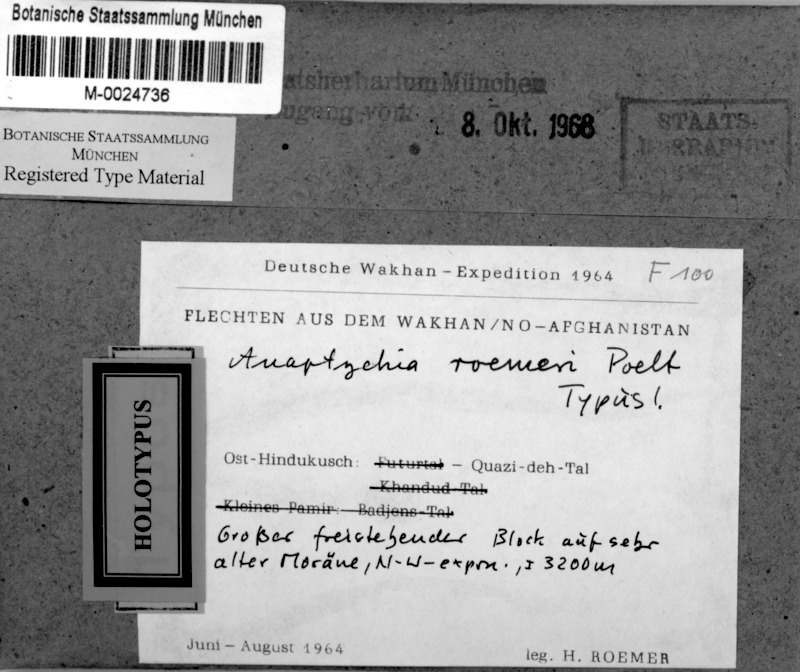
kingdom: Fungi
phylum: Ascomycota
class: Lecanoromycetes
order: Caliciales
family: Physciaceae
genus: Anaptychia
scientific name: Anaptychia
